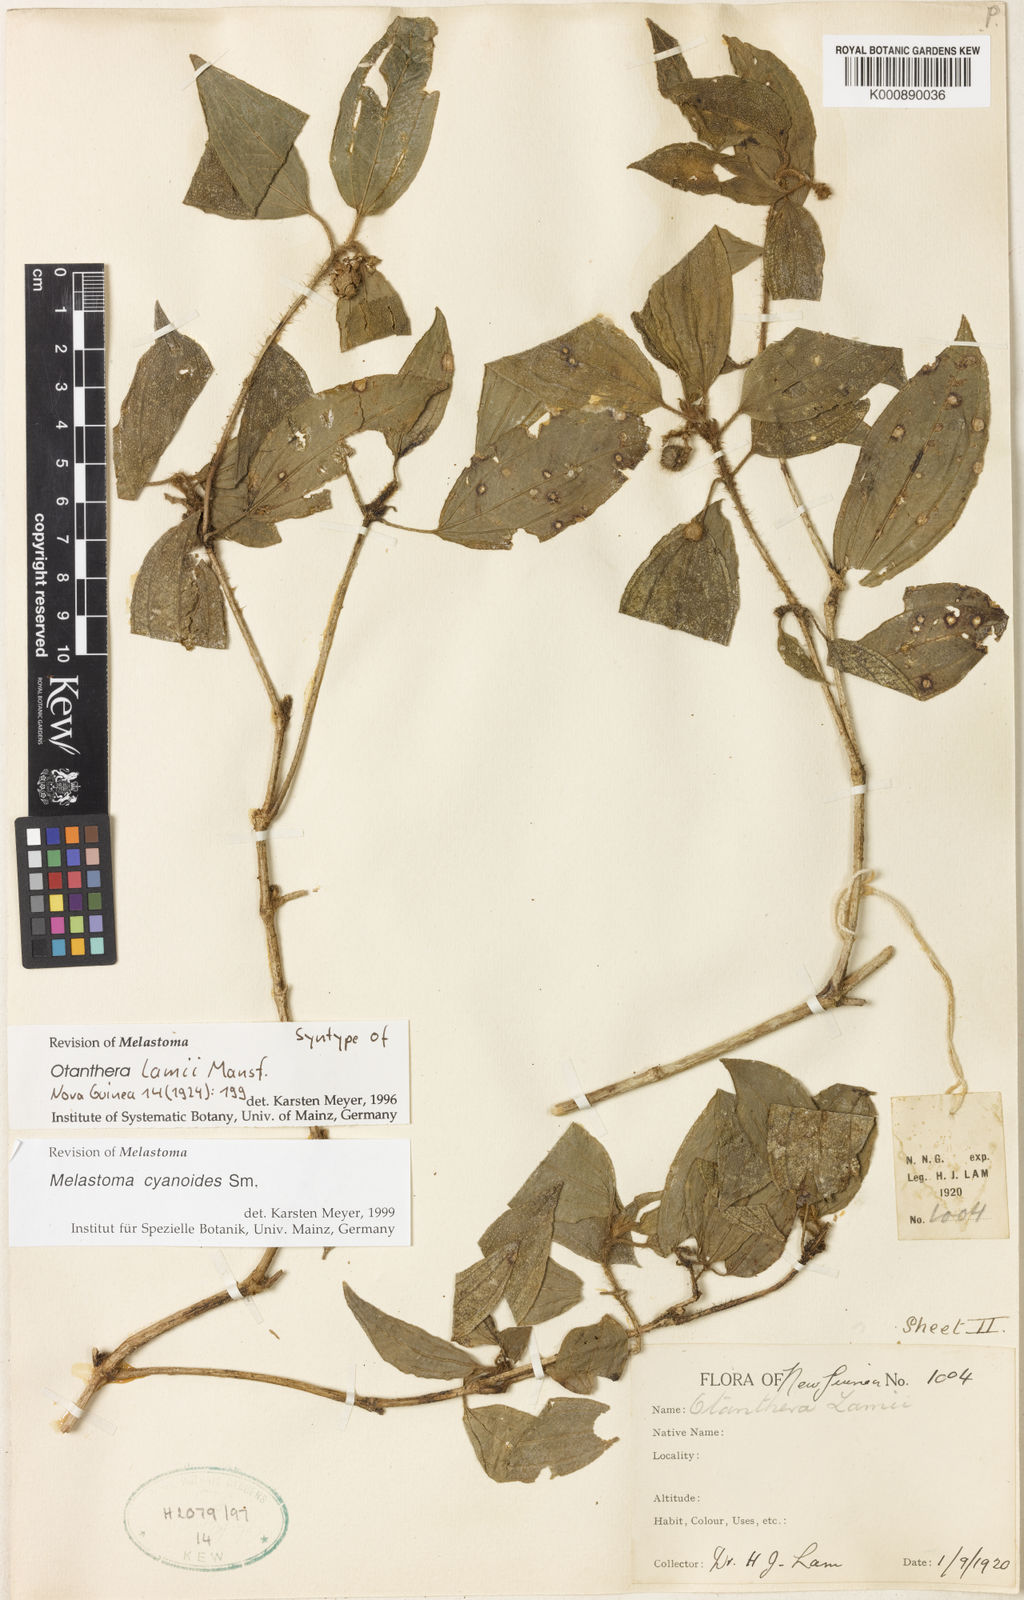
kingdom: Plantae
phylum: Tracheophyta
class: Magnoliopsida
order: Myrtales
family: Melastomataceae
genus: Melastoma
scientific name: Melastoma cyanoides
